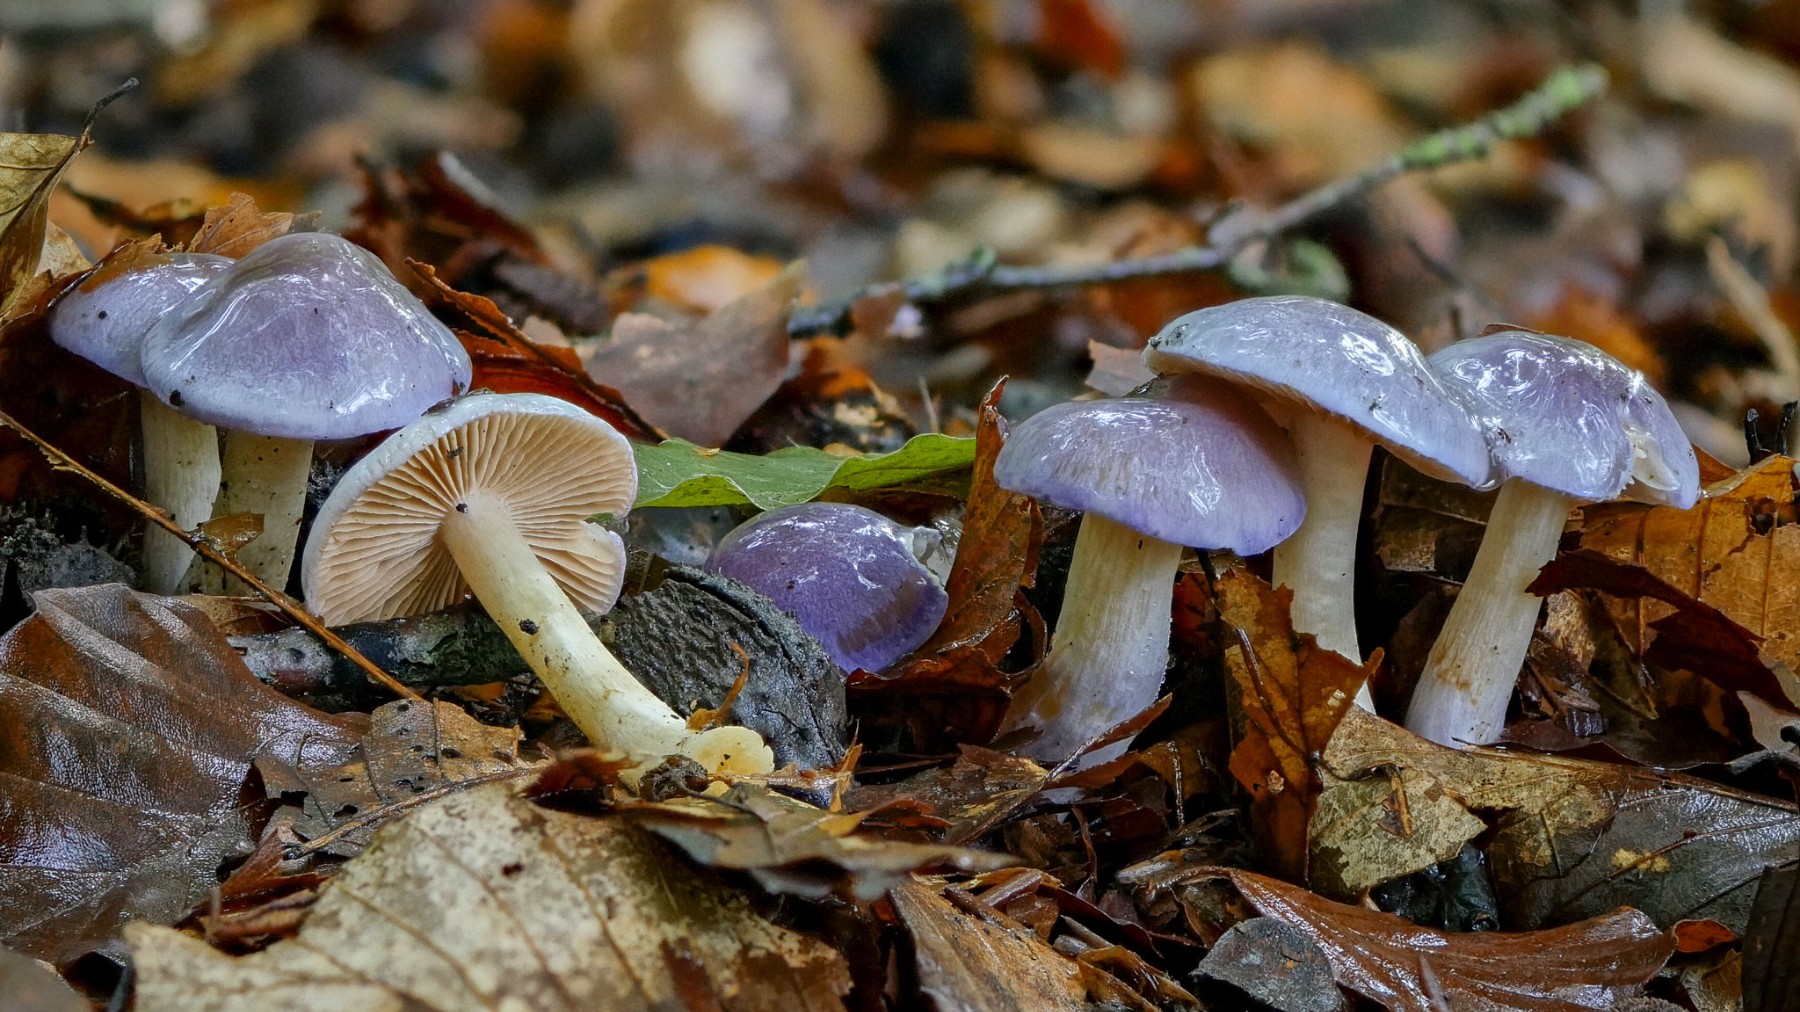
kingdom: Fungi
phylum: Basidiomycota
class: Agaricomycetes
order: Agaricales
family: Cortinariaceae
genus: Thaxterogaster
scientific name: Thaxterogaster croceocoeruleus
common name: blågullig slørhat
